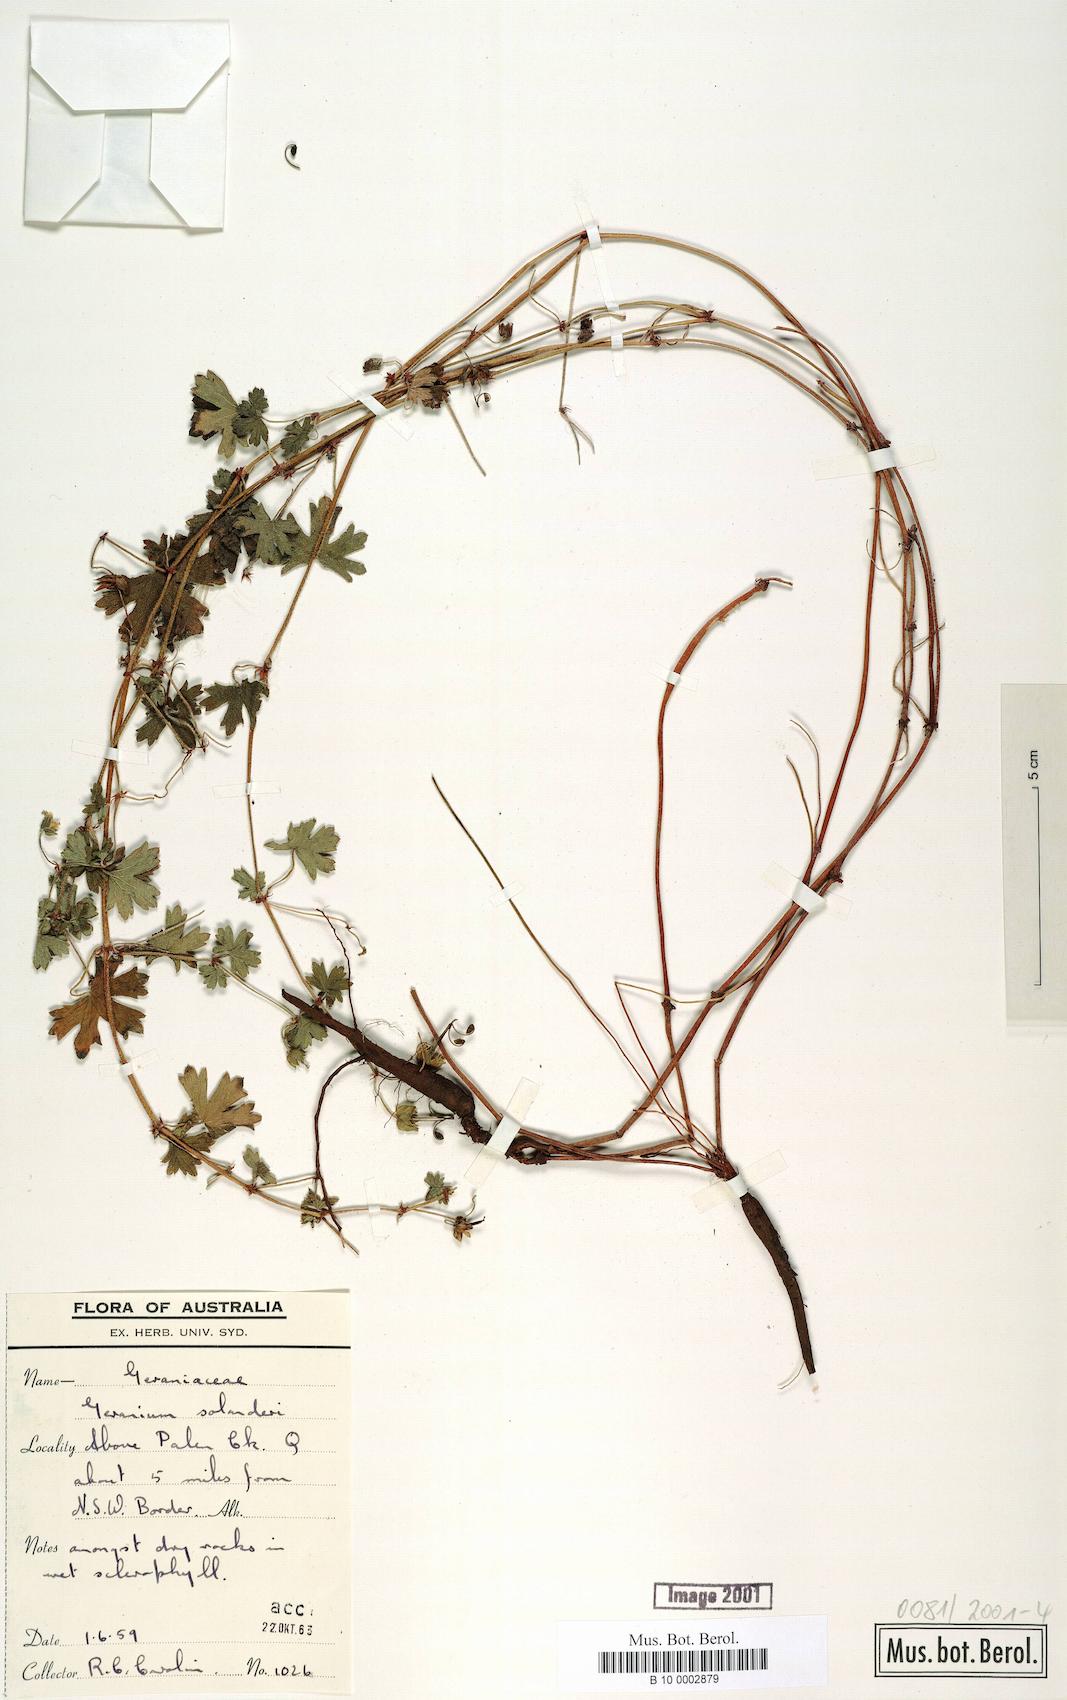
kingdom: Plantae
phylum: Tracheophyta
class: Magnoliopsida
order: Geraniales
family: Geraniaceae
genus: Geranium
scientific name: Geranium solanderi
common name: Solander's geranium
